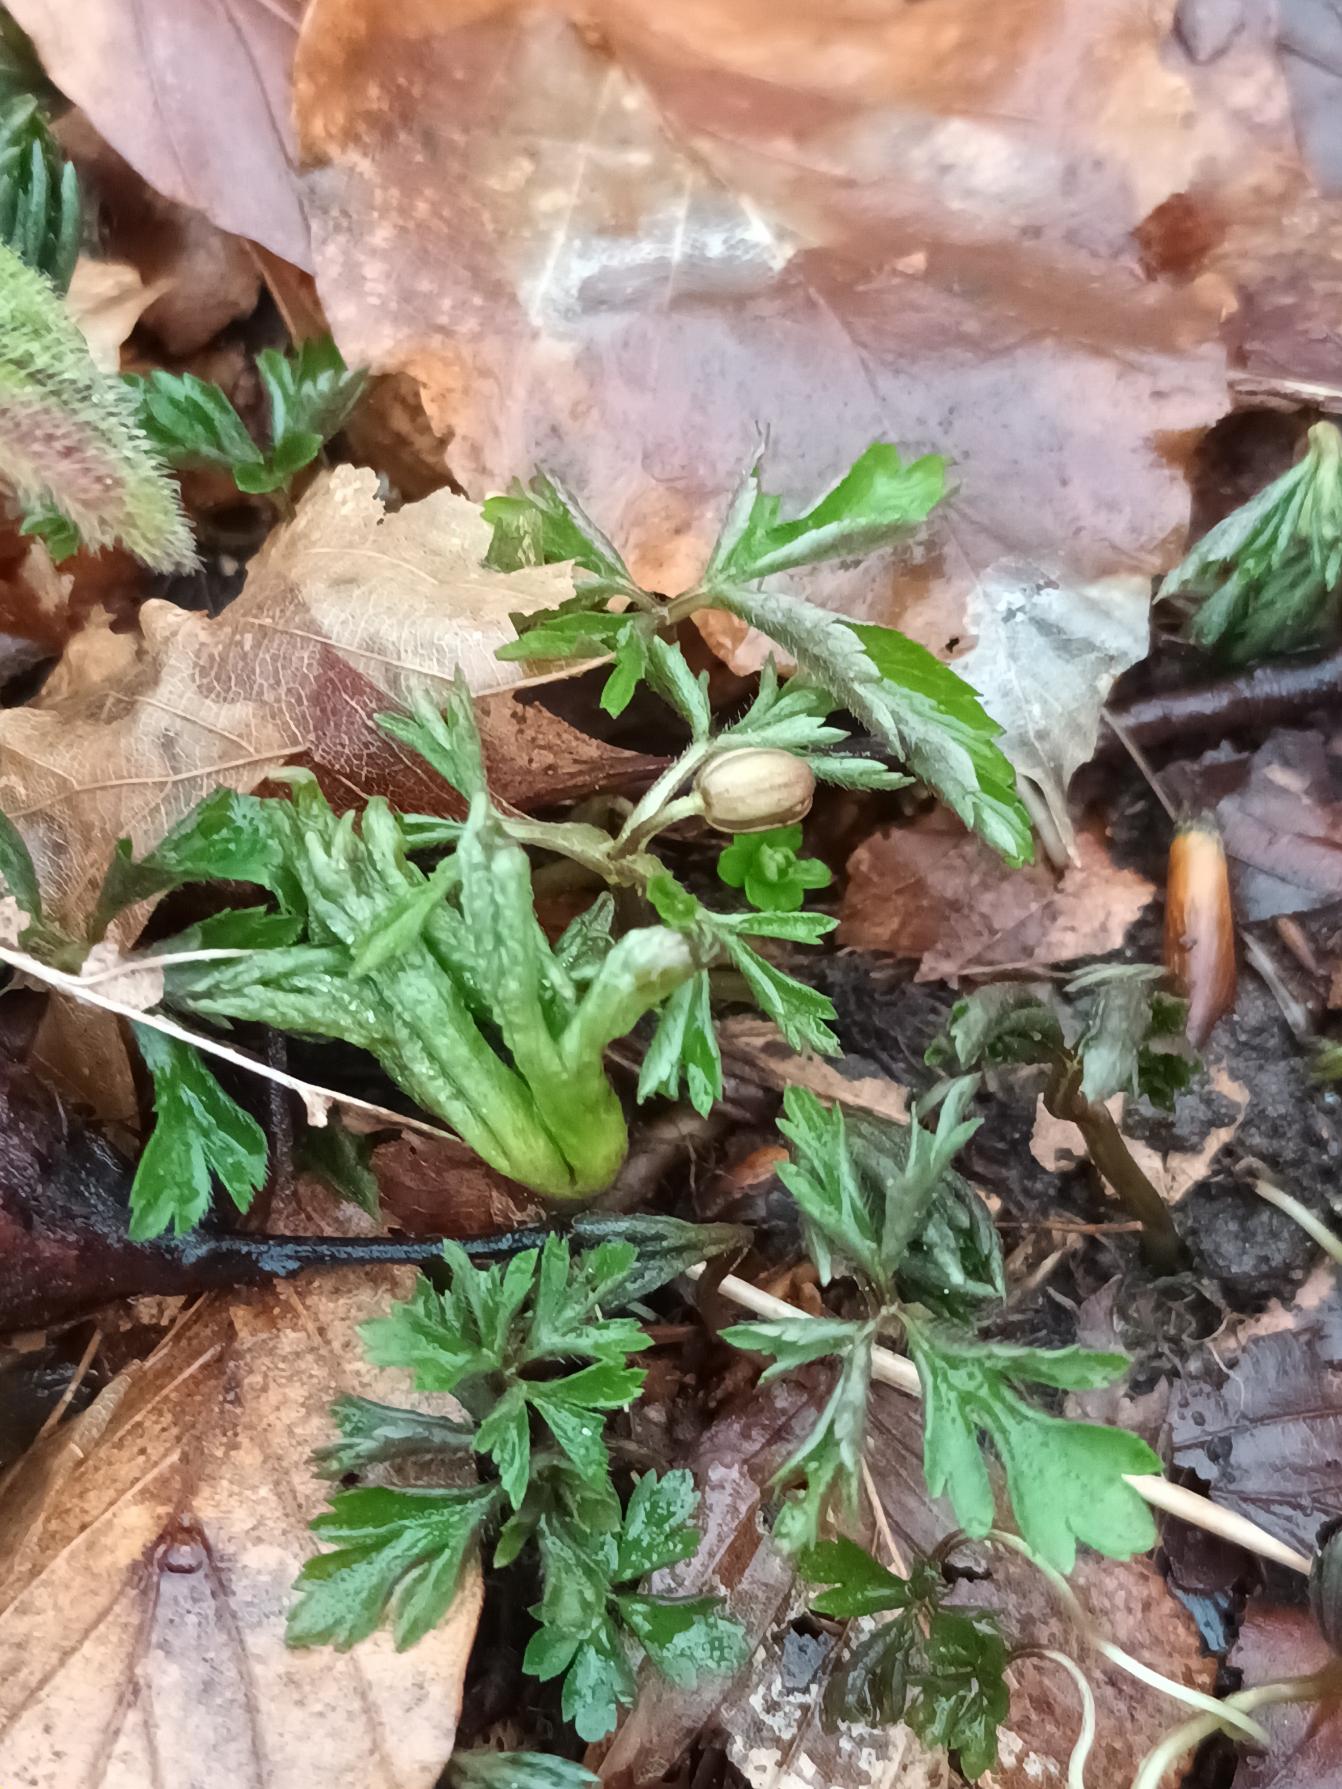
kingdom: Plantae
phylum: Tracheophyta
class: Magnoliopsida
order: Ranunculales
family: Ranunculaceae
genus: Anemone
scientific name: Anemone nemorosa
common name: Hvid anemone
